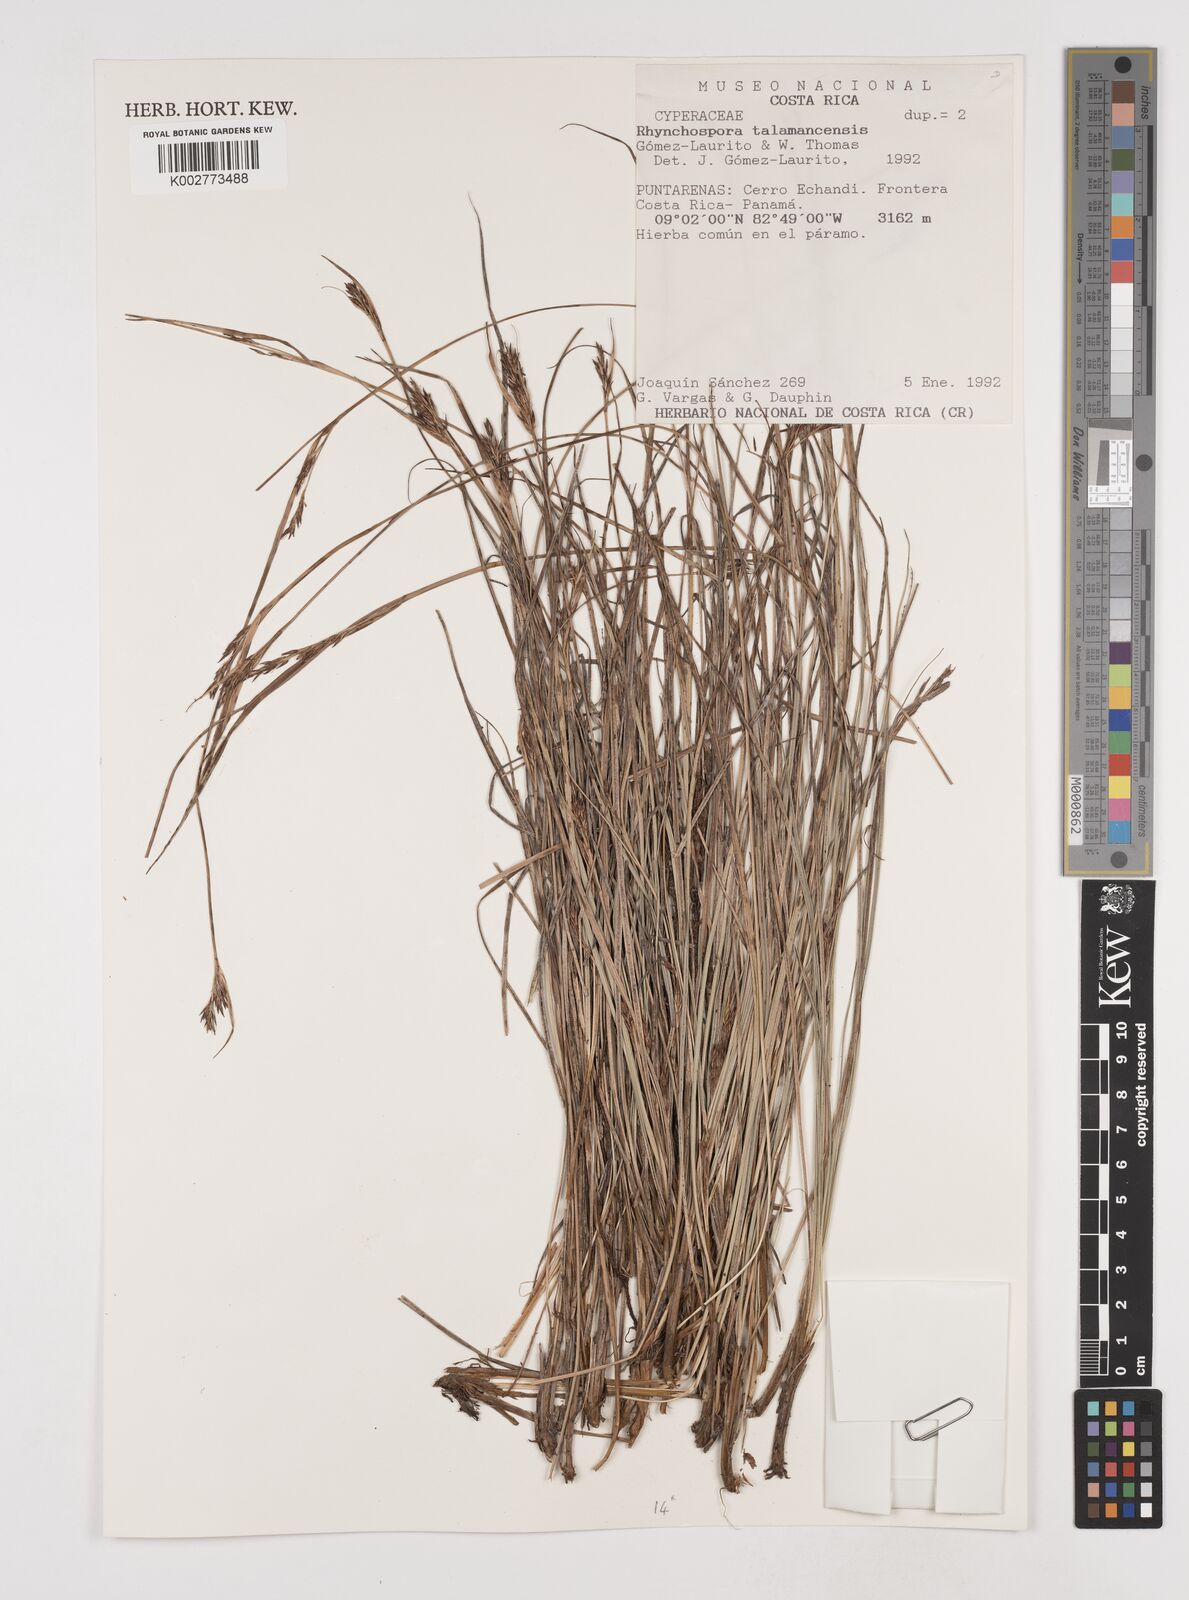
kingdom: Plantae
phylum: Tracheophyta
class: Liliopsida
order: Poales
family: Cyperaceae
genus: Rhynchospora
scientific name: Rhynchospora talamancensis
